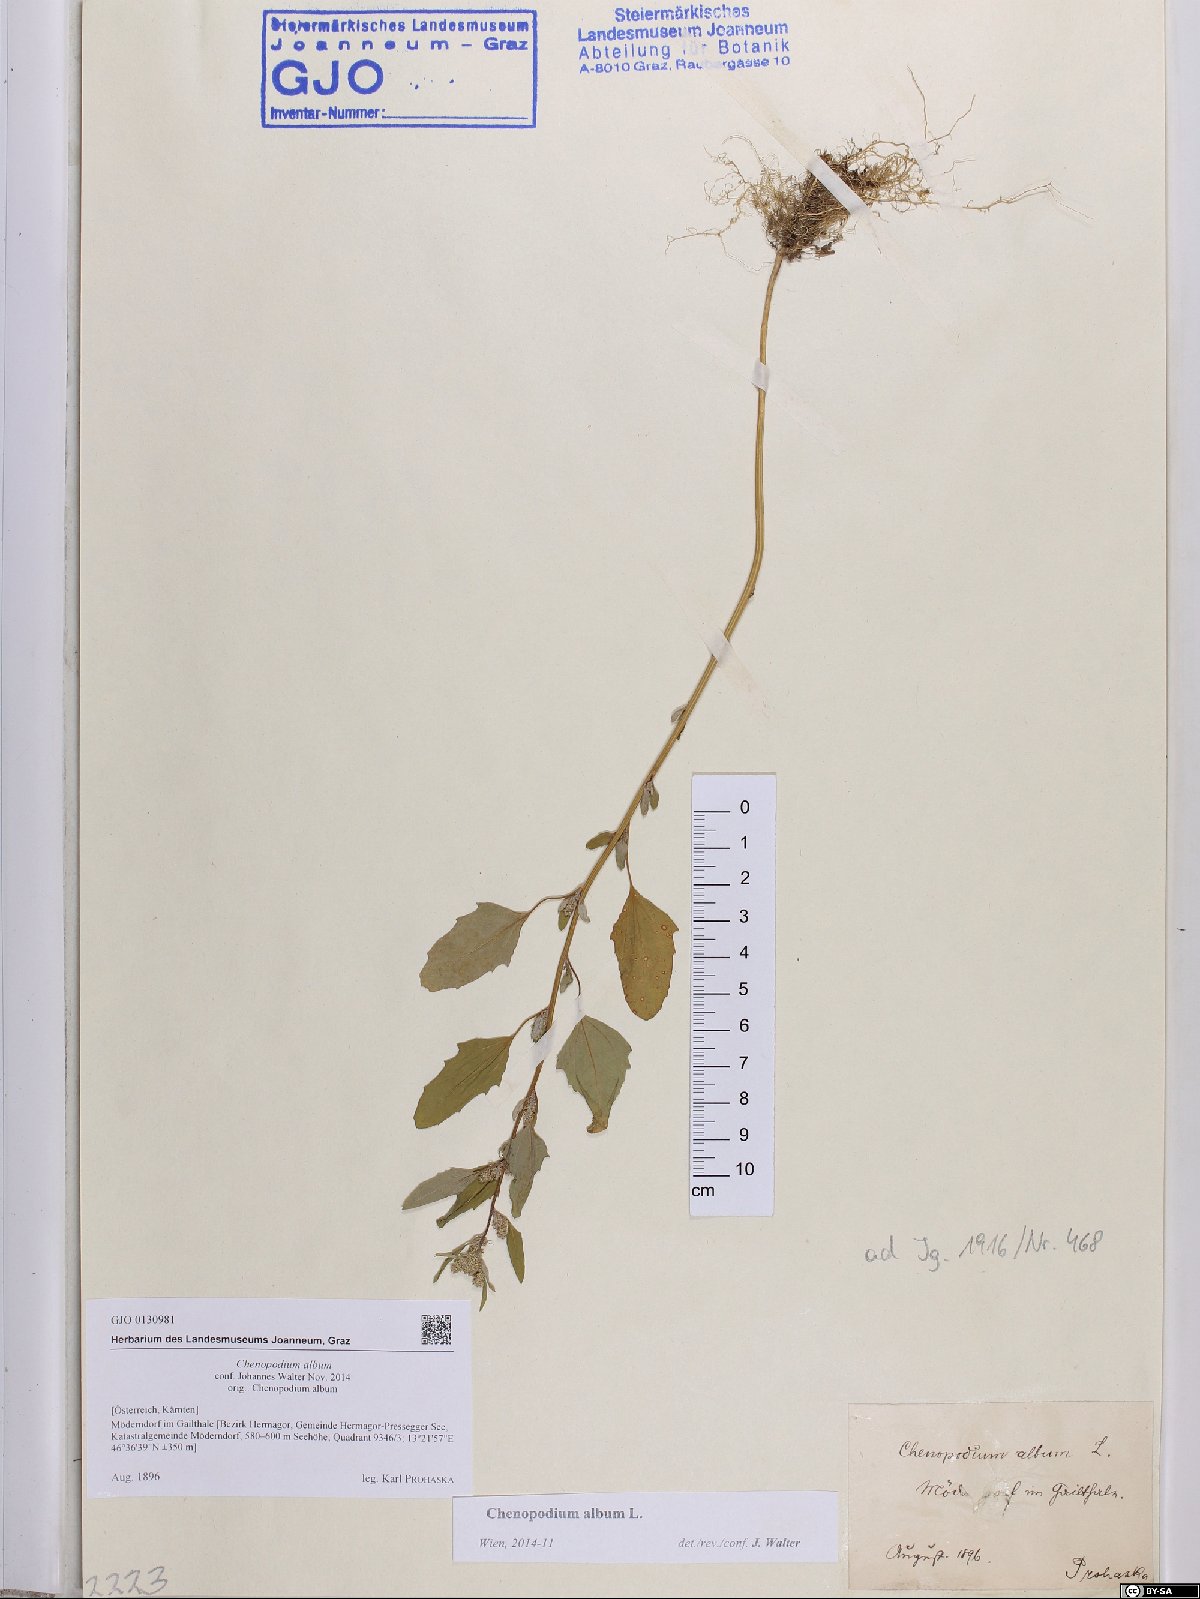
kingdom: Plantae
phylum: Tracheophyta
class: Magnoliopsida
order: Caryophyllales
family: Amaranthaceae
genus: Chenopodium
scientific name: Chenopodium album
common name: Fat-hen
